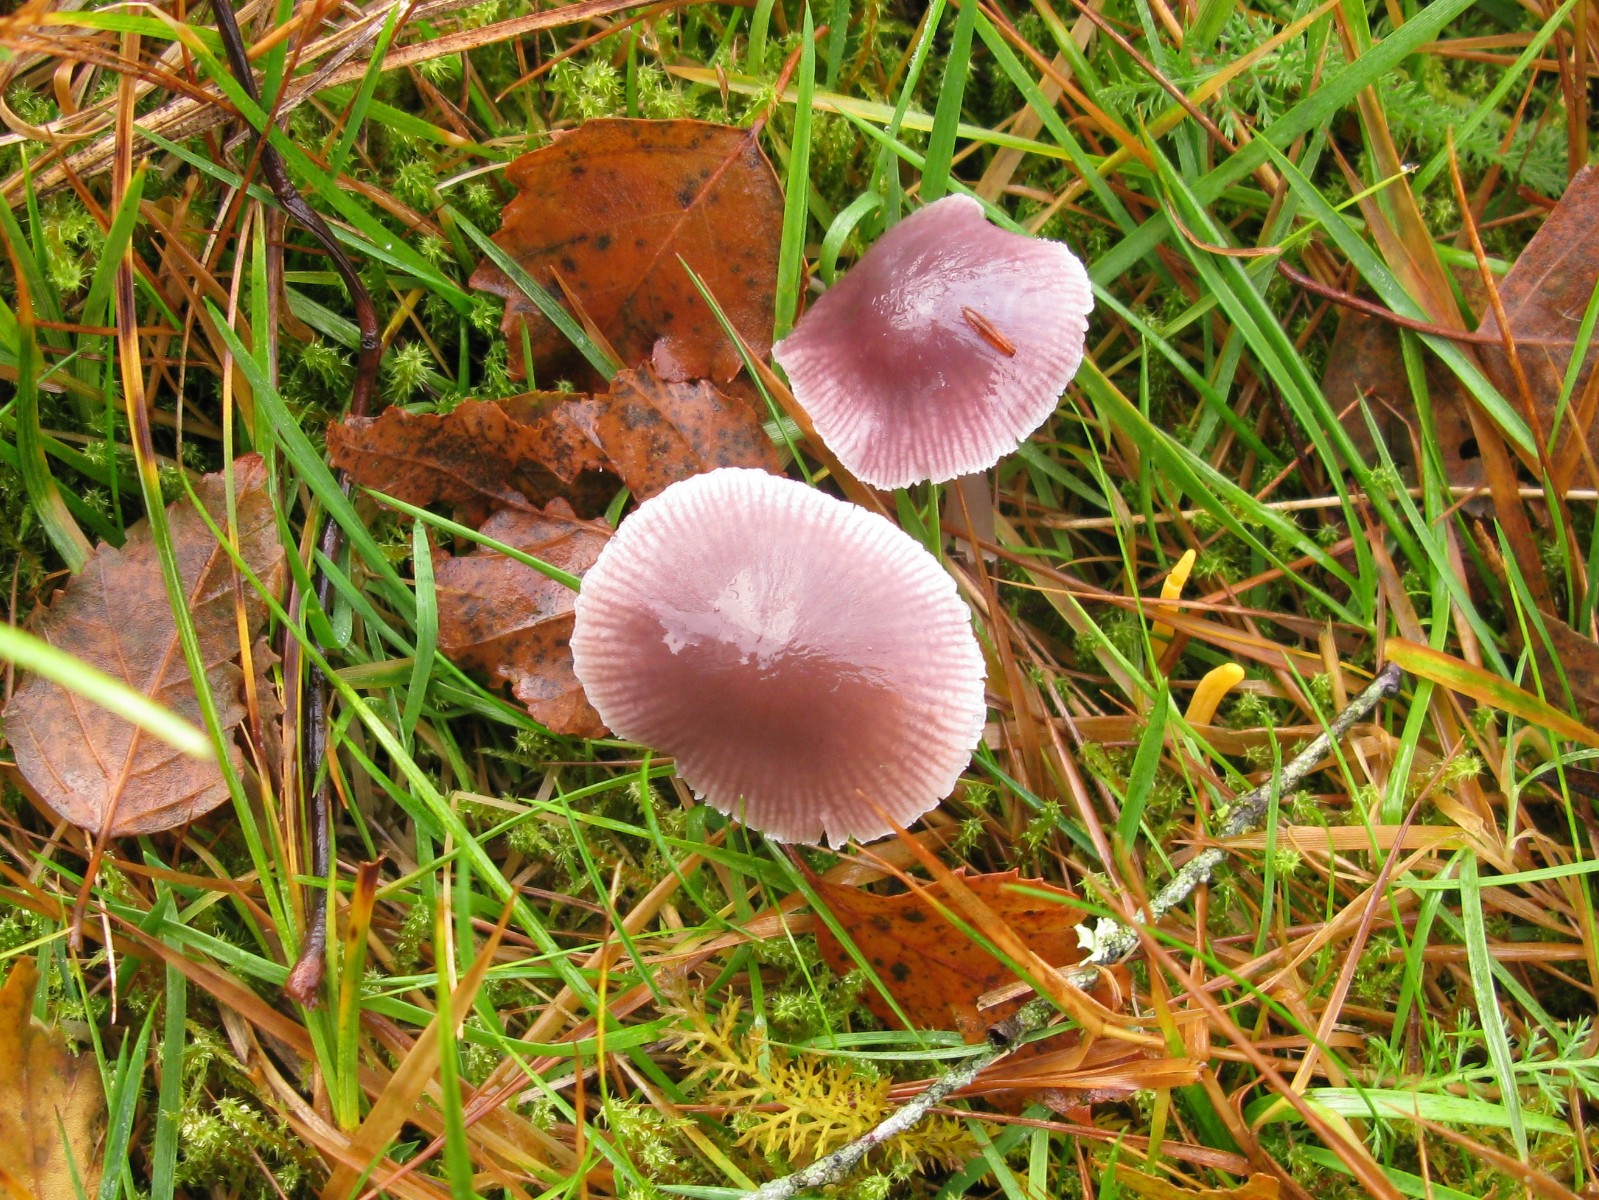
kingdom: Fungi
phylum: Basidiomycota
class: Agaricomycetes
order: Agaricales
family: Mycenaceae
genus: Mycena
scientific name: Mycena luteovariegata
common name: lillagul huesvamp
